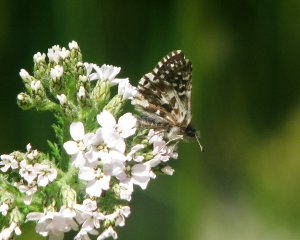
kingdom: Animalia
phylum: Arthropoda
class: Insecta
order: Lepidoptera
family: Hesperiidae
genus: Pyrgus
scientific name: Pyrgus ruralis
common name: Two-banded Checkered-Skipper
